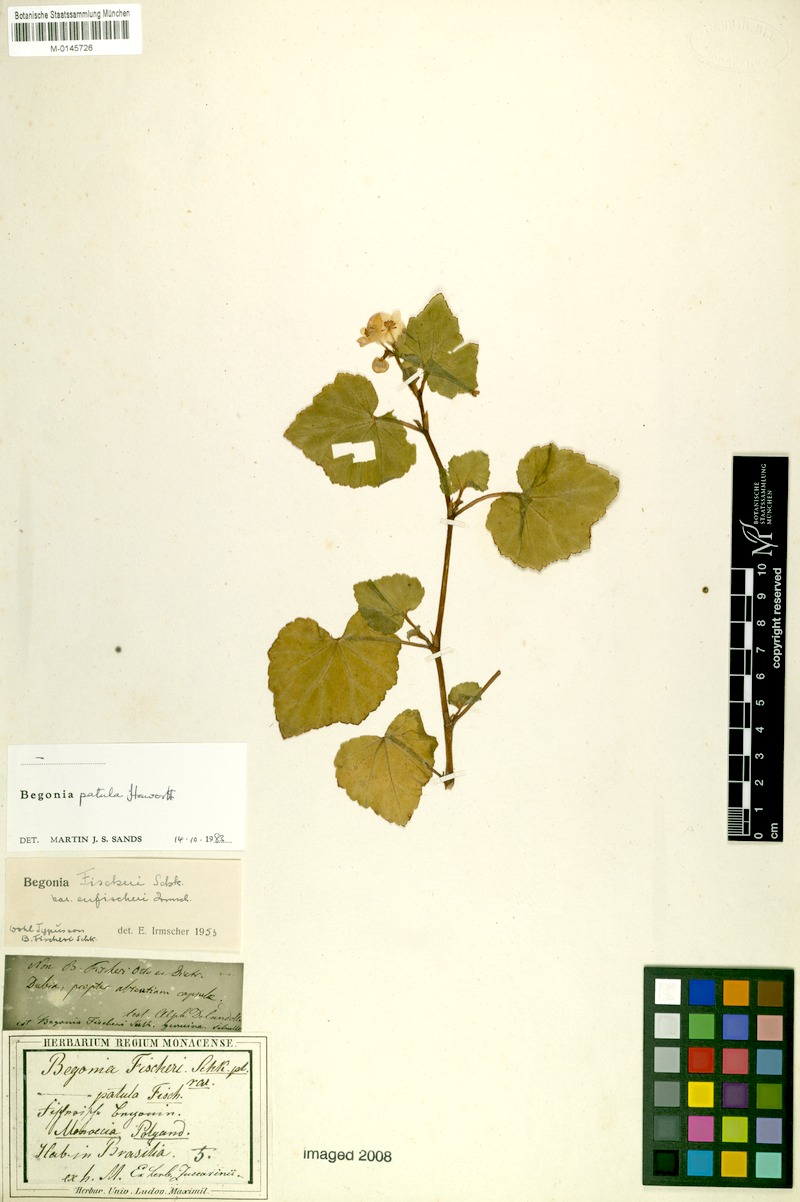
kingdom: Plantae
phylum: Tracheophyta
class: Magnoliopsida
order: Cucurbitales
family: Begoniaceae
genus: Begonia
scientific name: Begonia fischeri
